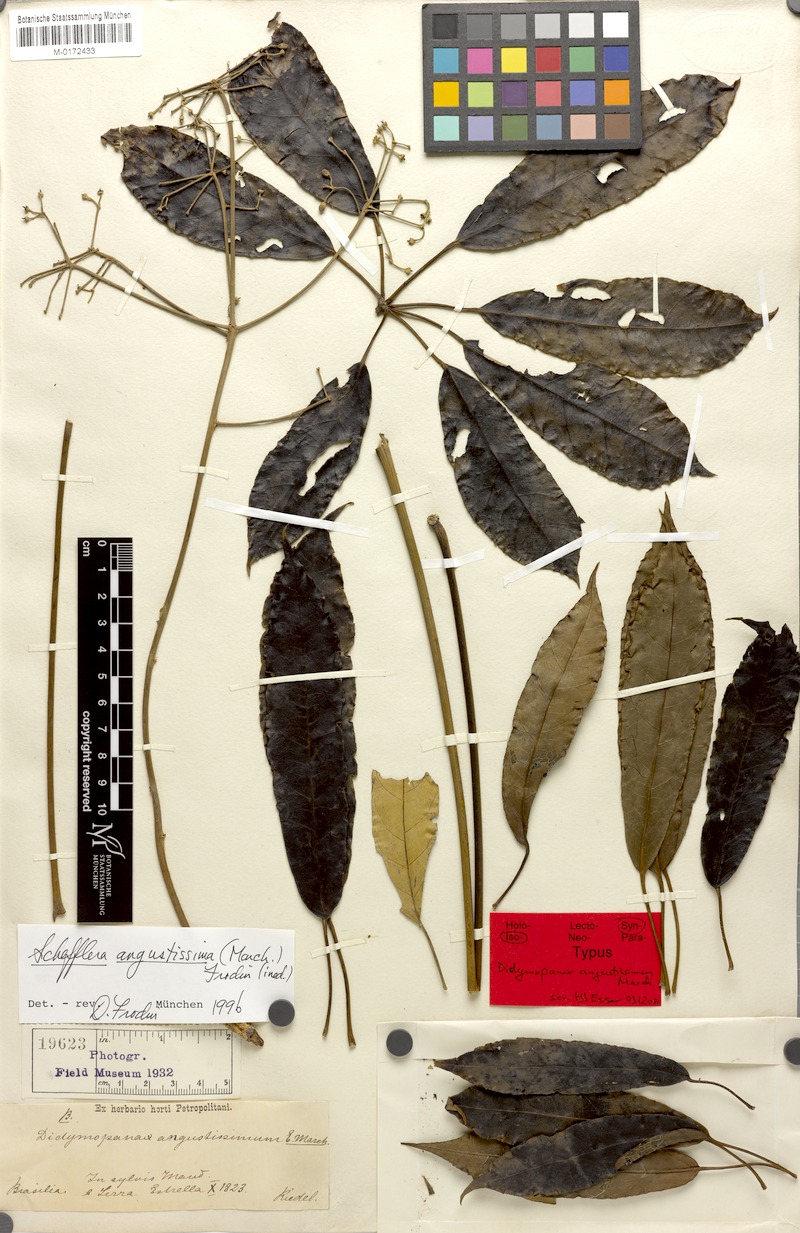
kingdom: Plantae
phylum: Tracheophyta
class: Magnoliopsida
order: Apiales
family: Araliaceae
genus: Didymopanax
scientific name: Didymopanax angustissimus
